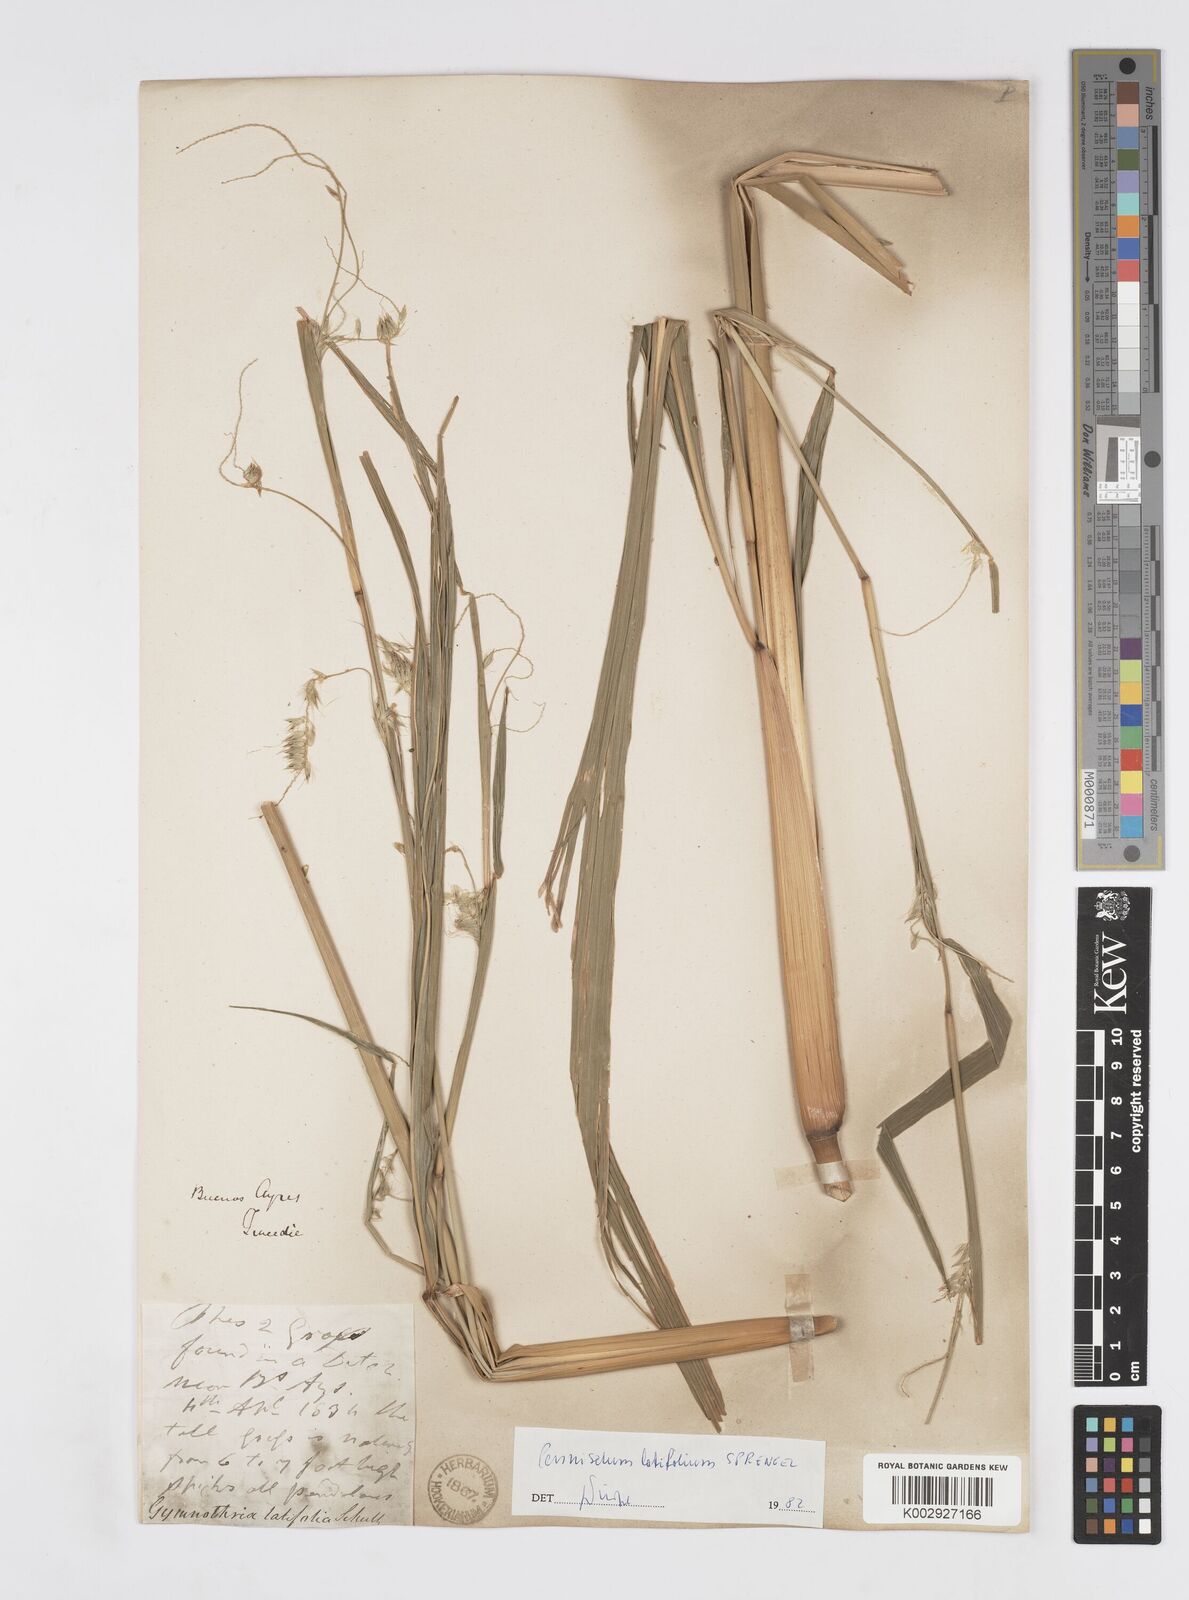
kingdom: Plantae
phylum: Tracheophyta
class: Liliopsida
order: Poales
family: Poaceae
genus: Cenchrus
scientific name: Cenchrus latifolius
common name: Sandbur
